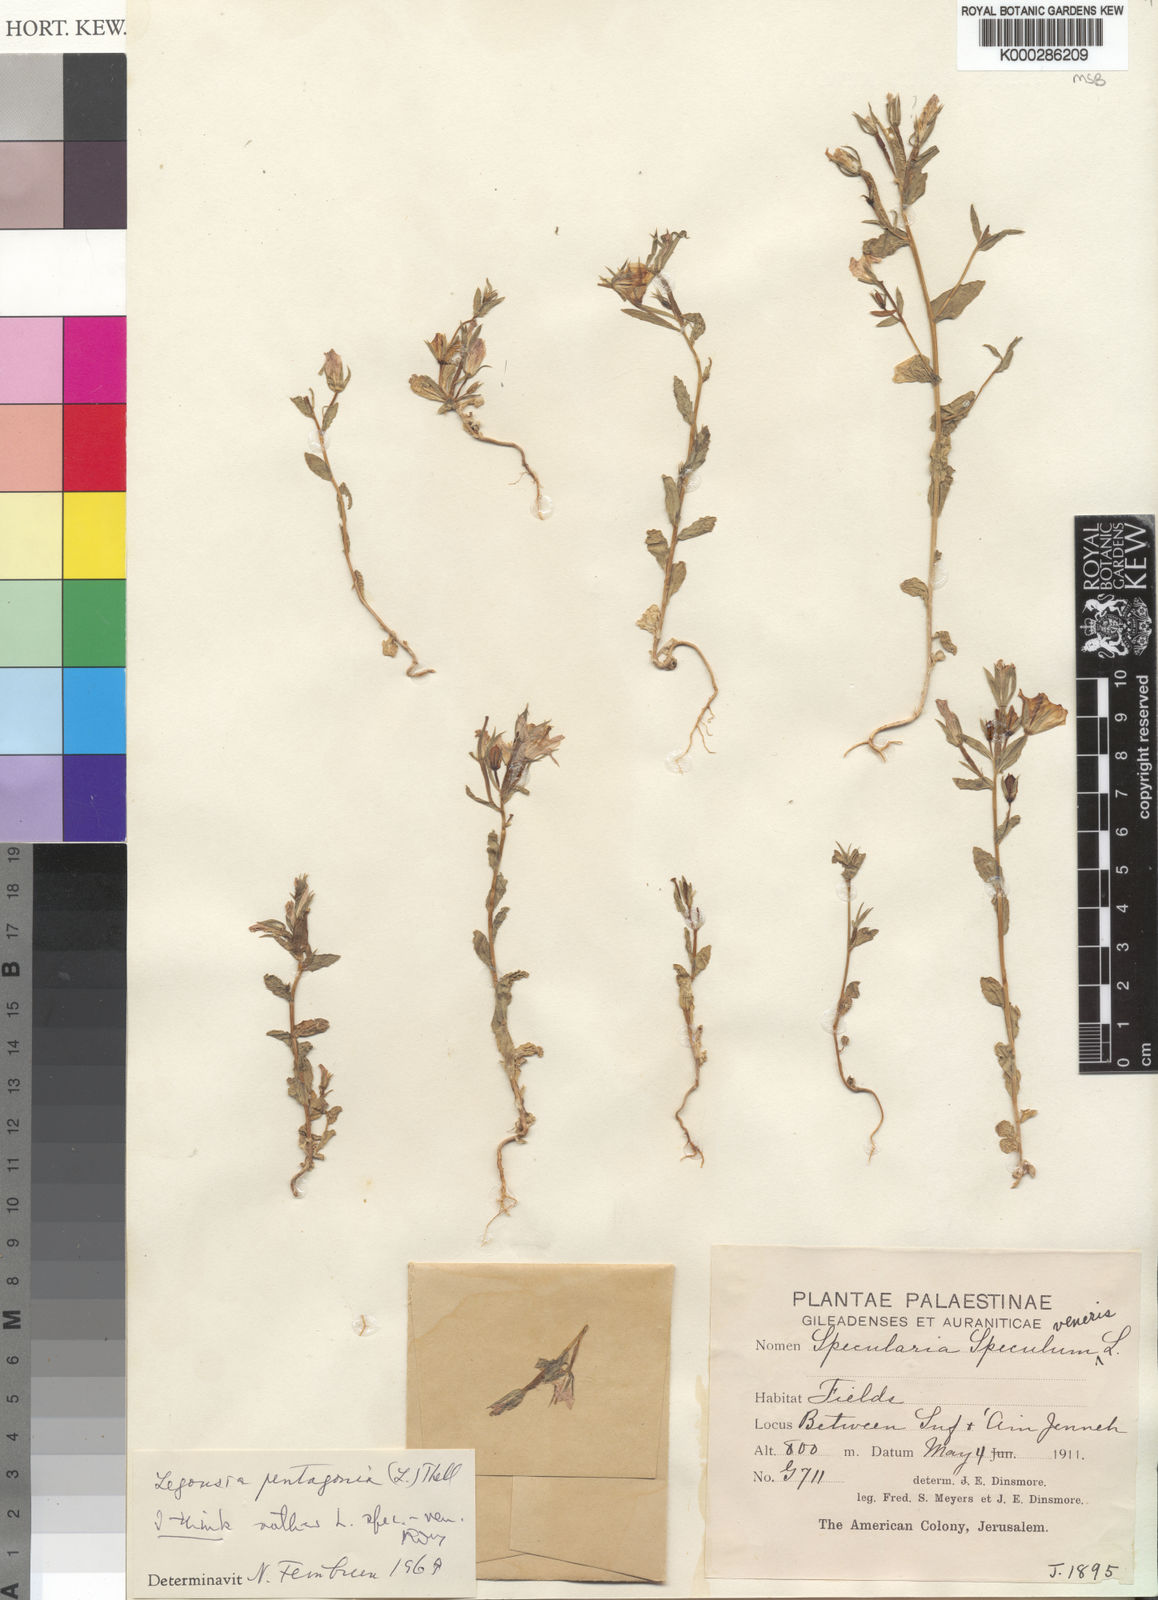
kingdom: Plantae
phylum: Tracheophyta
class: Magnoliopsida
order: Asterales
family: Campanulaceae
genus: Legousia
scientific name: Legousia speculum-veneris
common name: Large venus's-looking-glass
